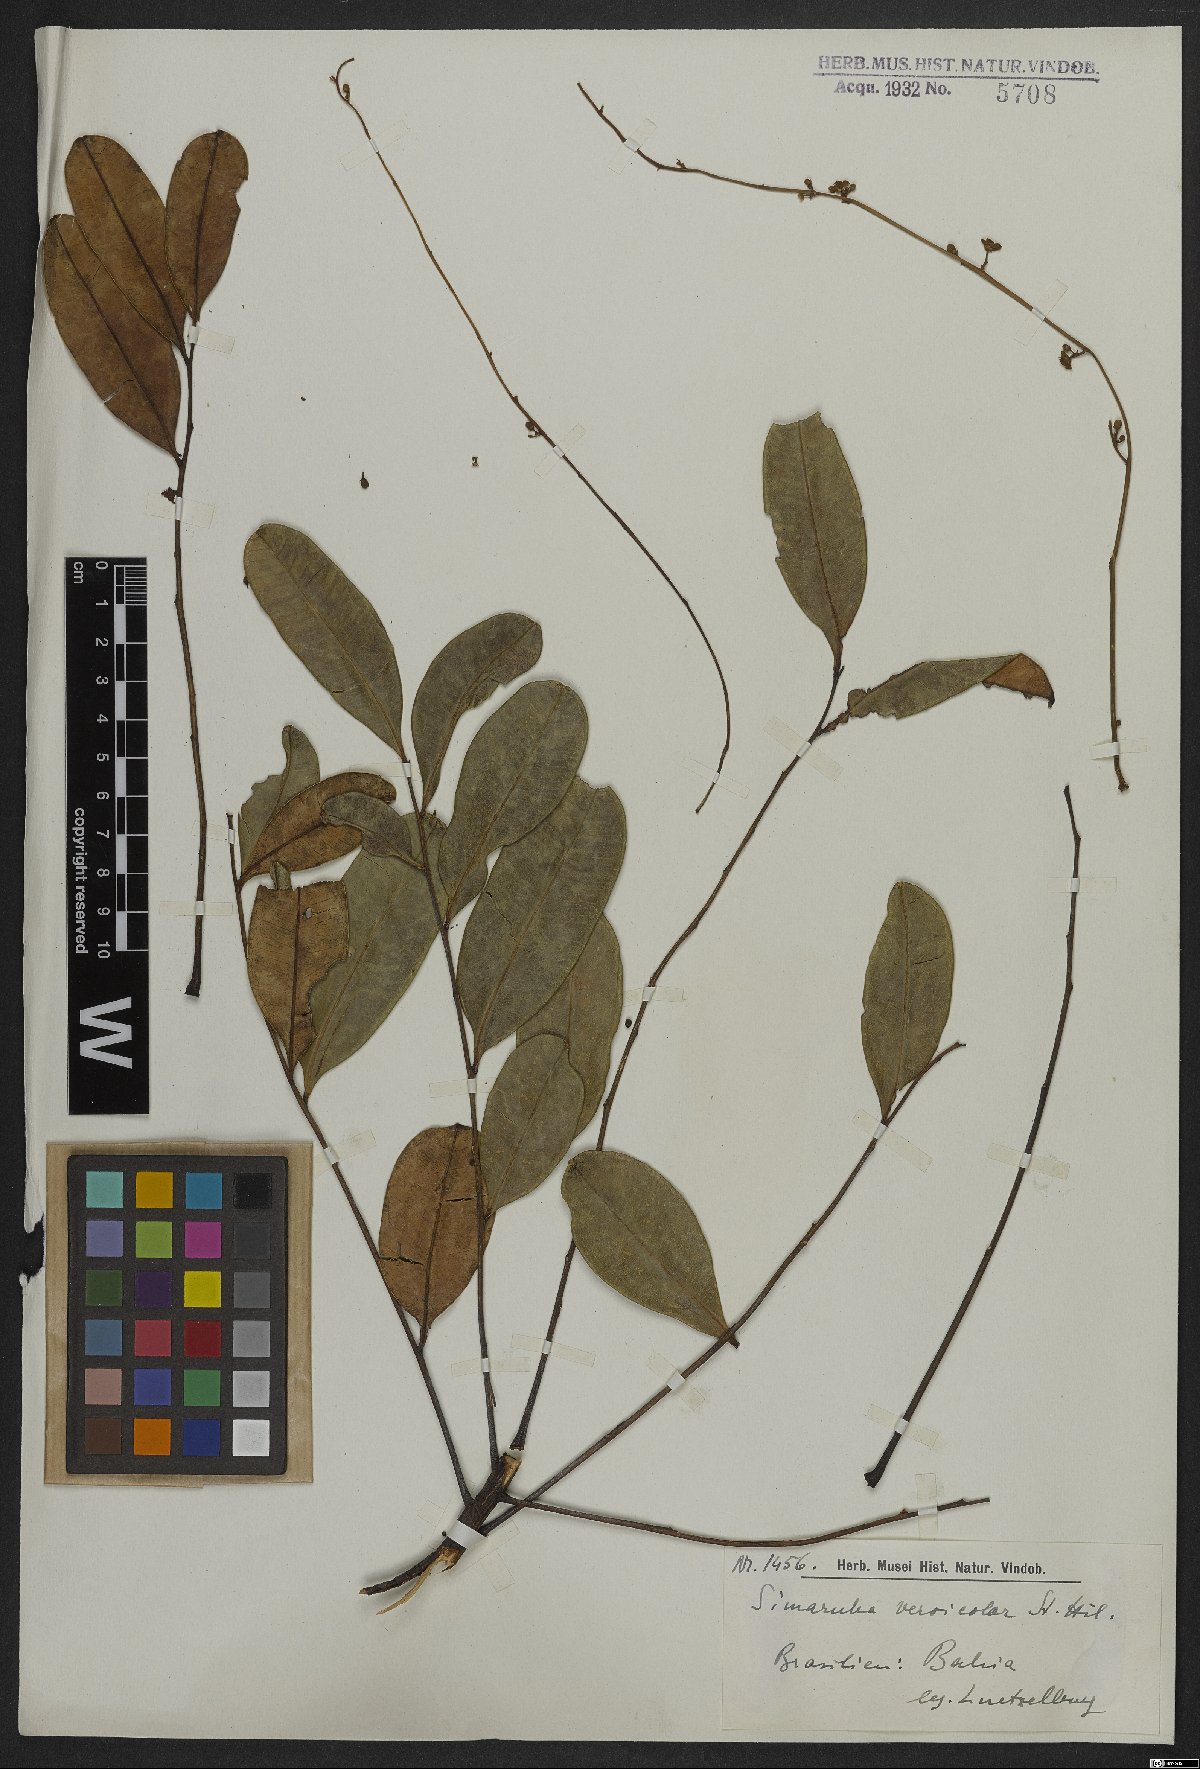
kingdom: Plantae
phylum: Tracheophyta
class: Magnoliopsida
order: Sapindales
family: Simaroubaceae
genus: Simarouba
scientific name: Simarouba versicolor
